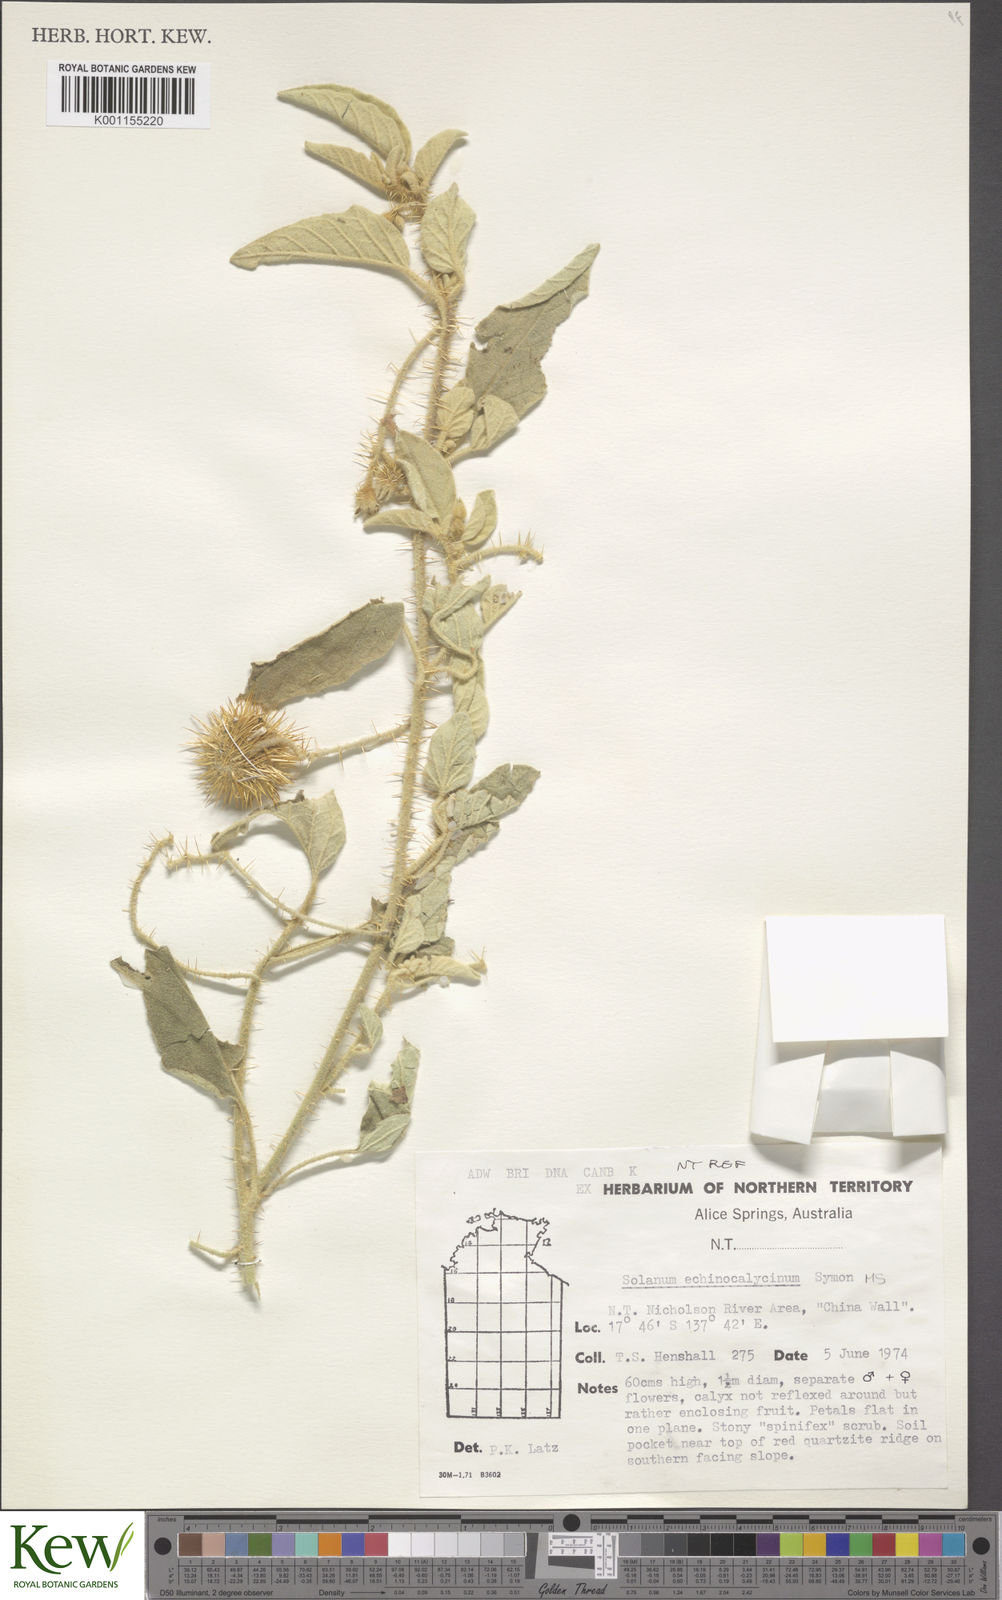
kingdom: Plantae
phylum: Tracheophyta
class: Magnoliopsida
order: Solanales
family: Solanaceae
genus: Solanum
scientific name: Solanum
